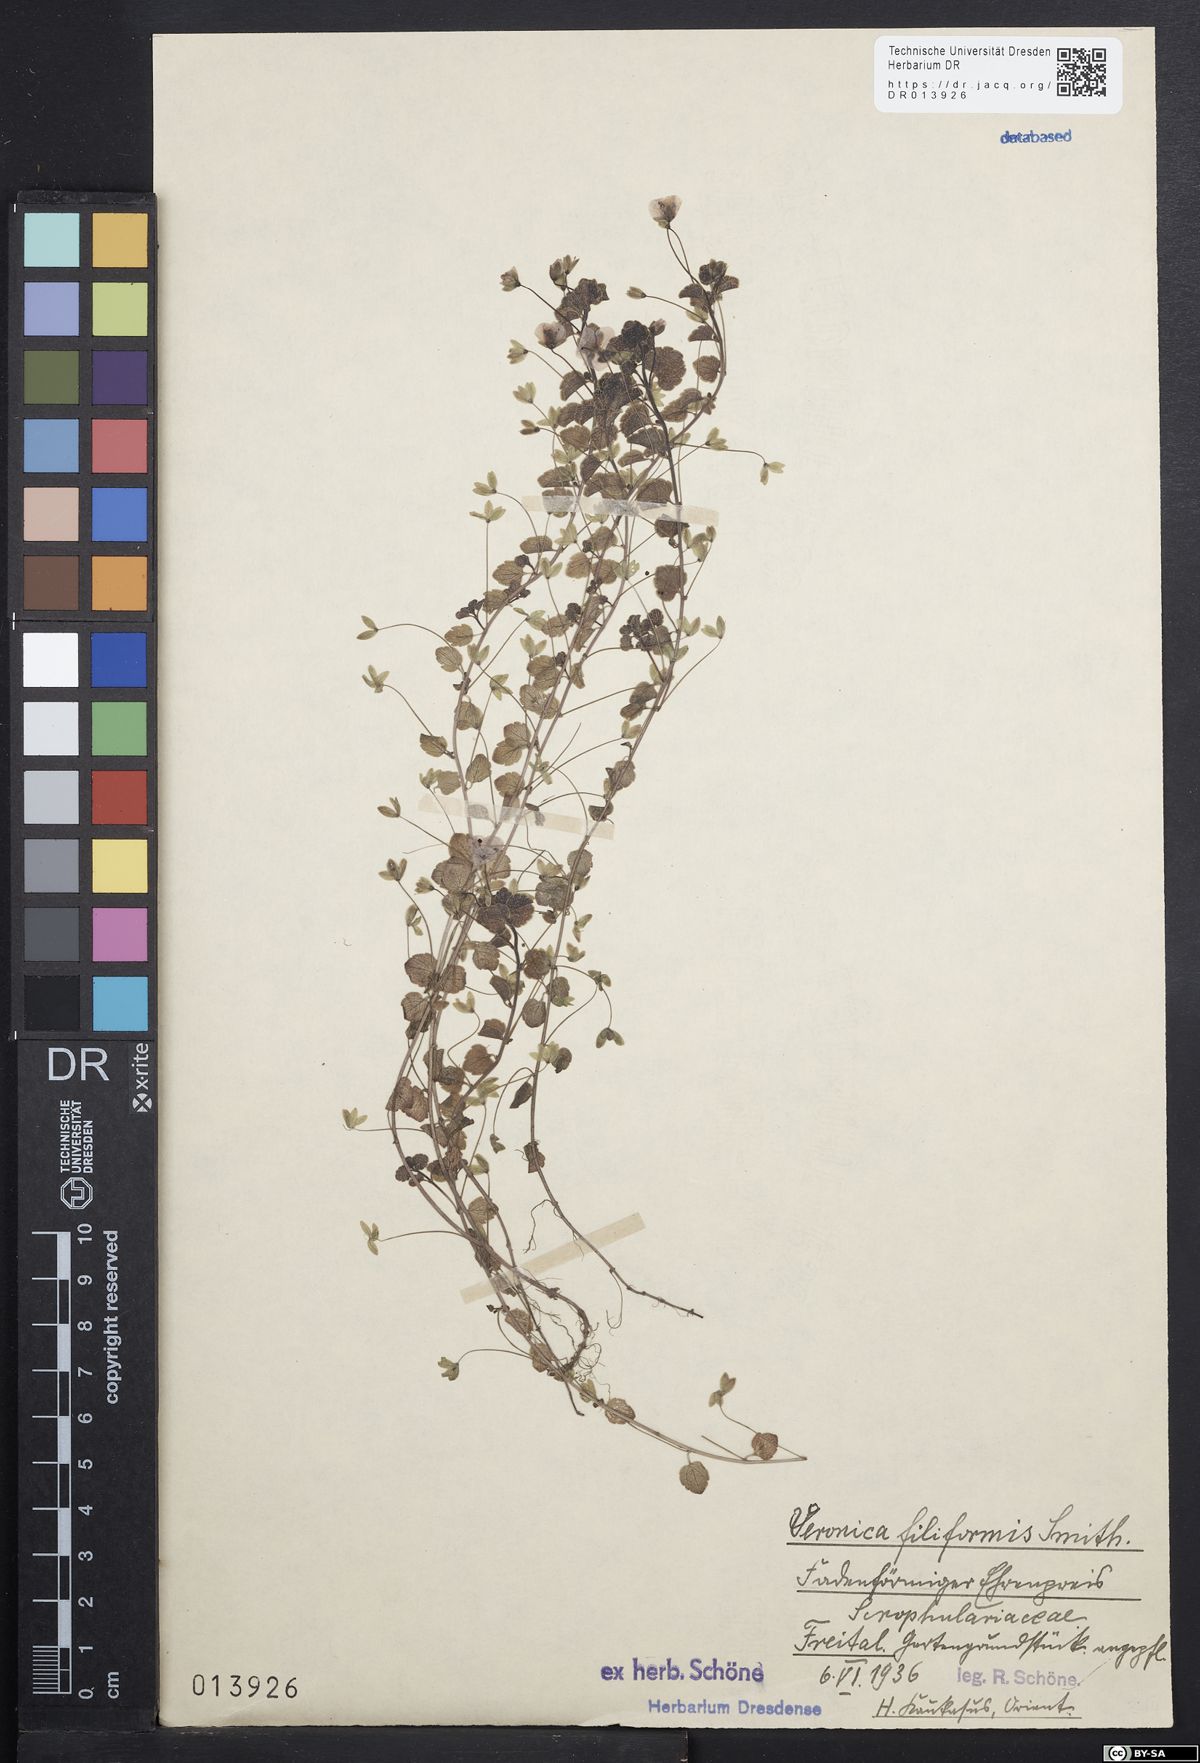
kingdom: Plantae
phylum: Tracheophyta
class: Magnoliopsida
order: Lamiales
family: Plantaginaceae
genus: Veronica
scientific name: Veronica filiformis
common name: Slender speedwell
